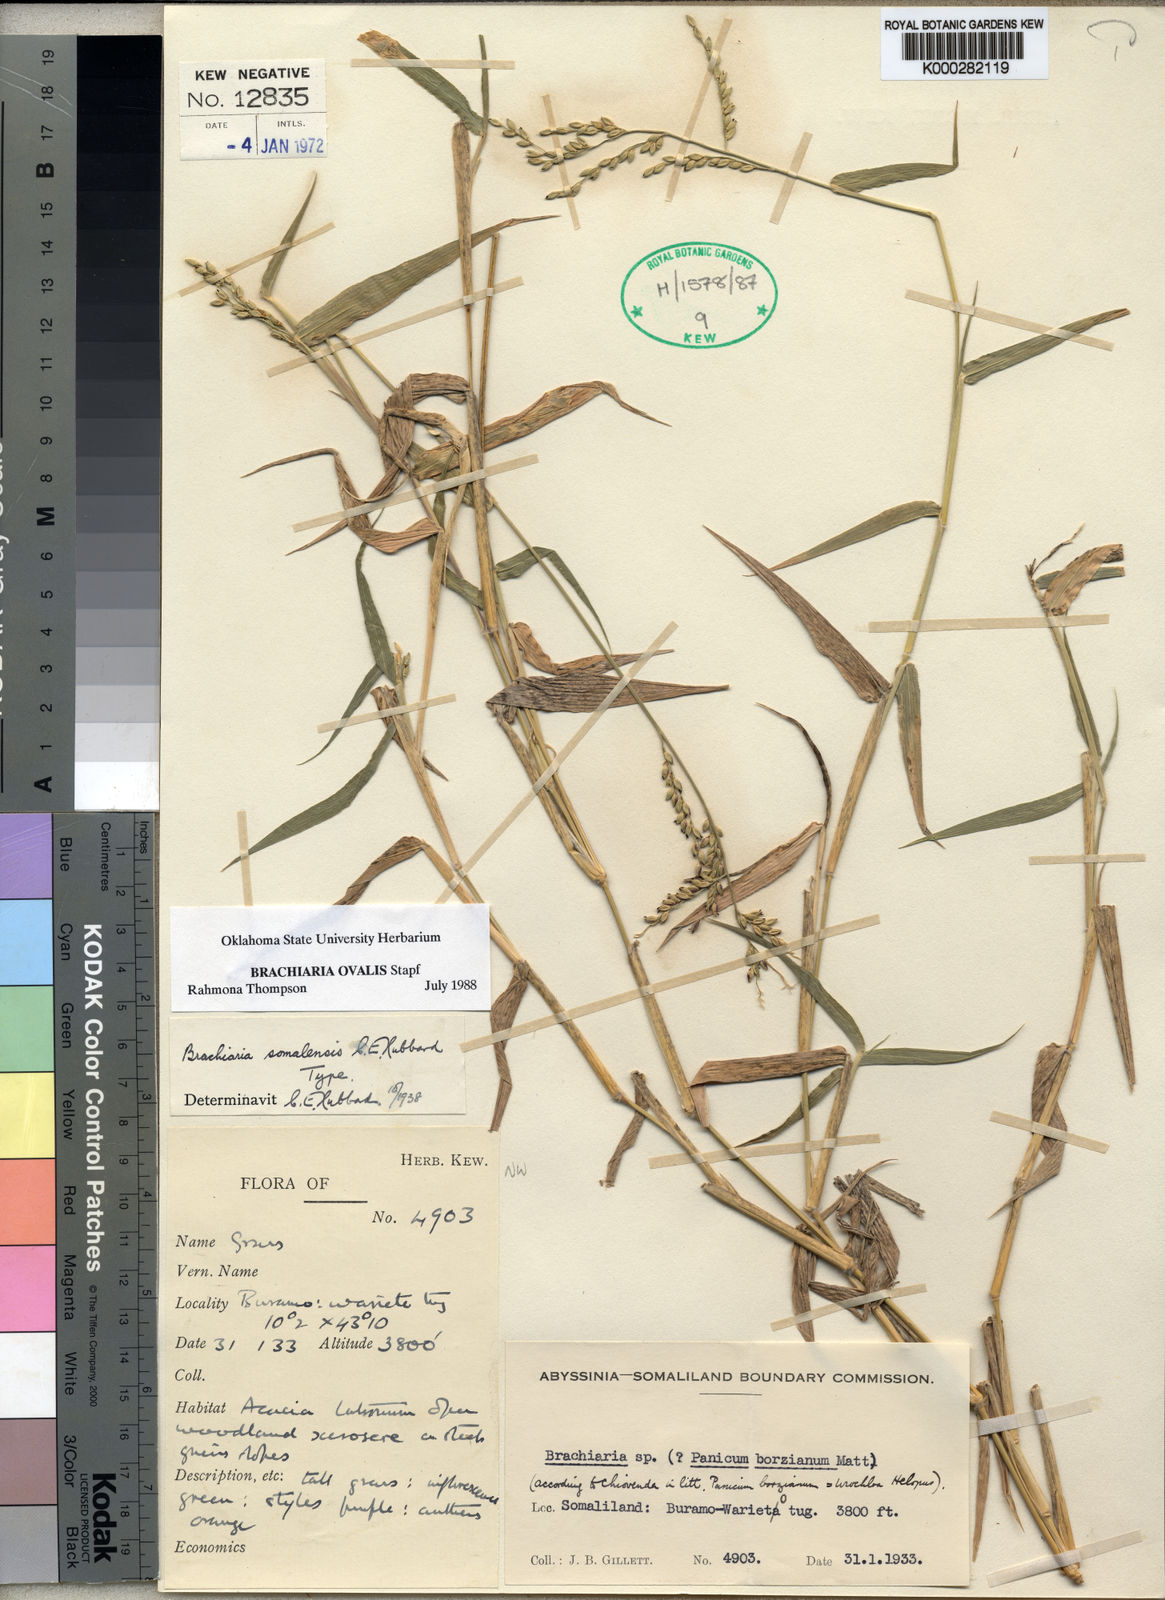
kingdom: Plantae
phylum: Tracheophyta
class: Liliopsida
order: Poales
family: Poaceae
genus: Urochloa
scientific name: Urochloa ovalis
